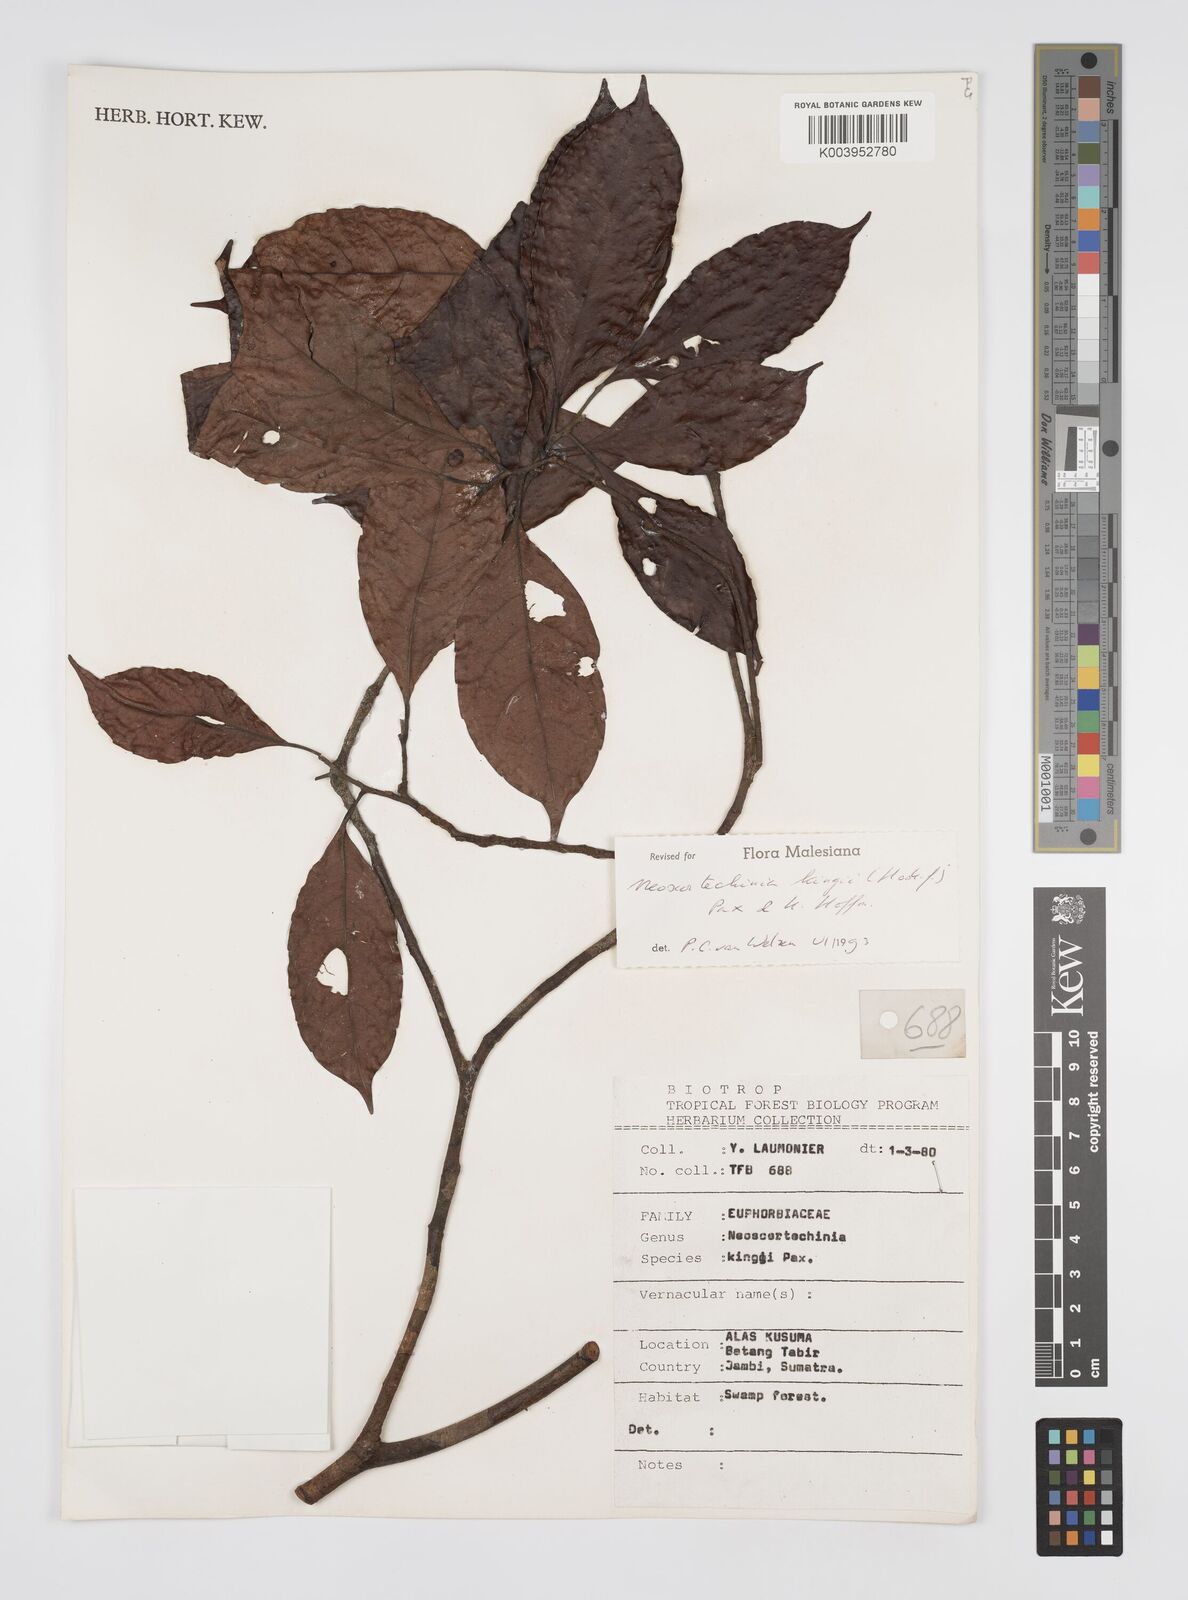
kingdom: Plantae
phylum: Tracheophyta
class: Magnoliopsida
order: Malpighiales
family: Euphorbiaceae
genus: Neoscortechinia
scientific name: Neoscortechinia kingii
